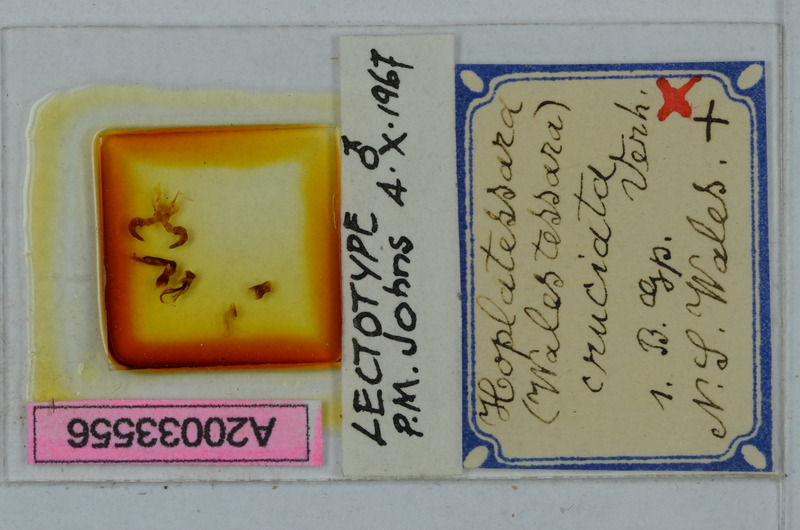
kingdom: Animalia
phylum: Arthropoda
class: Diplopoda
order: Polydesmida
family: Paradoxosomatidae
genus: Hoplatessara
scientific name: Hoplatessara cruciata
